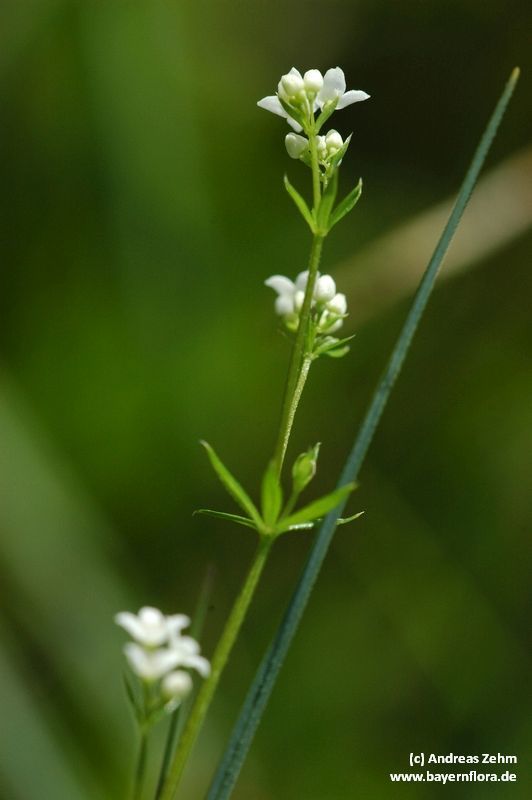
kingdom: Plantae
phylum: Tracheophyta
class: Magnoliopsida
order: Gentianales
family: Rubiaceae
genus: Galium
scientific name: Galium uliginosum
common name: Fen bedstraw
